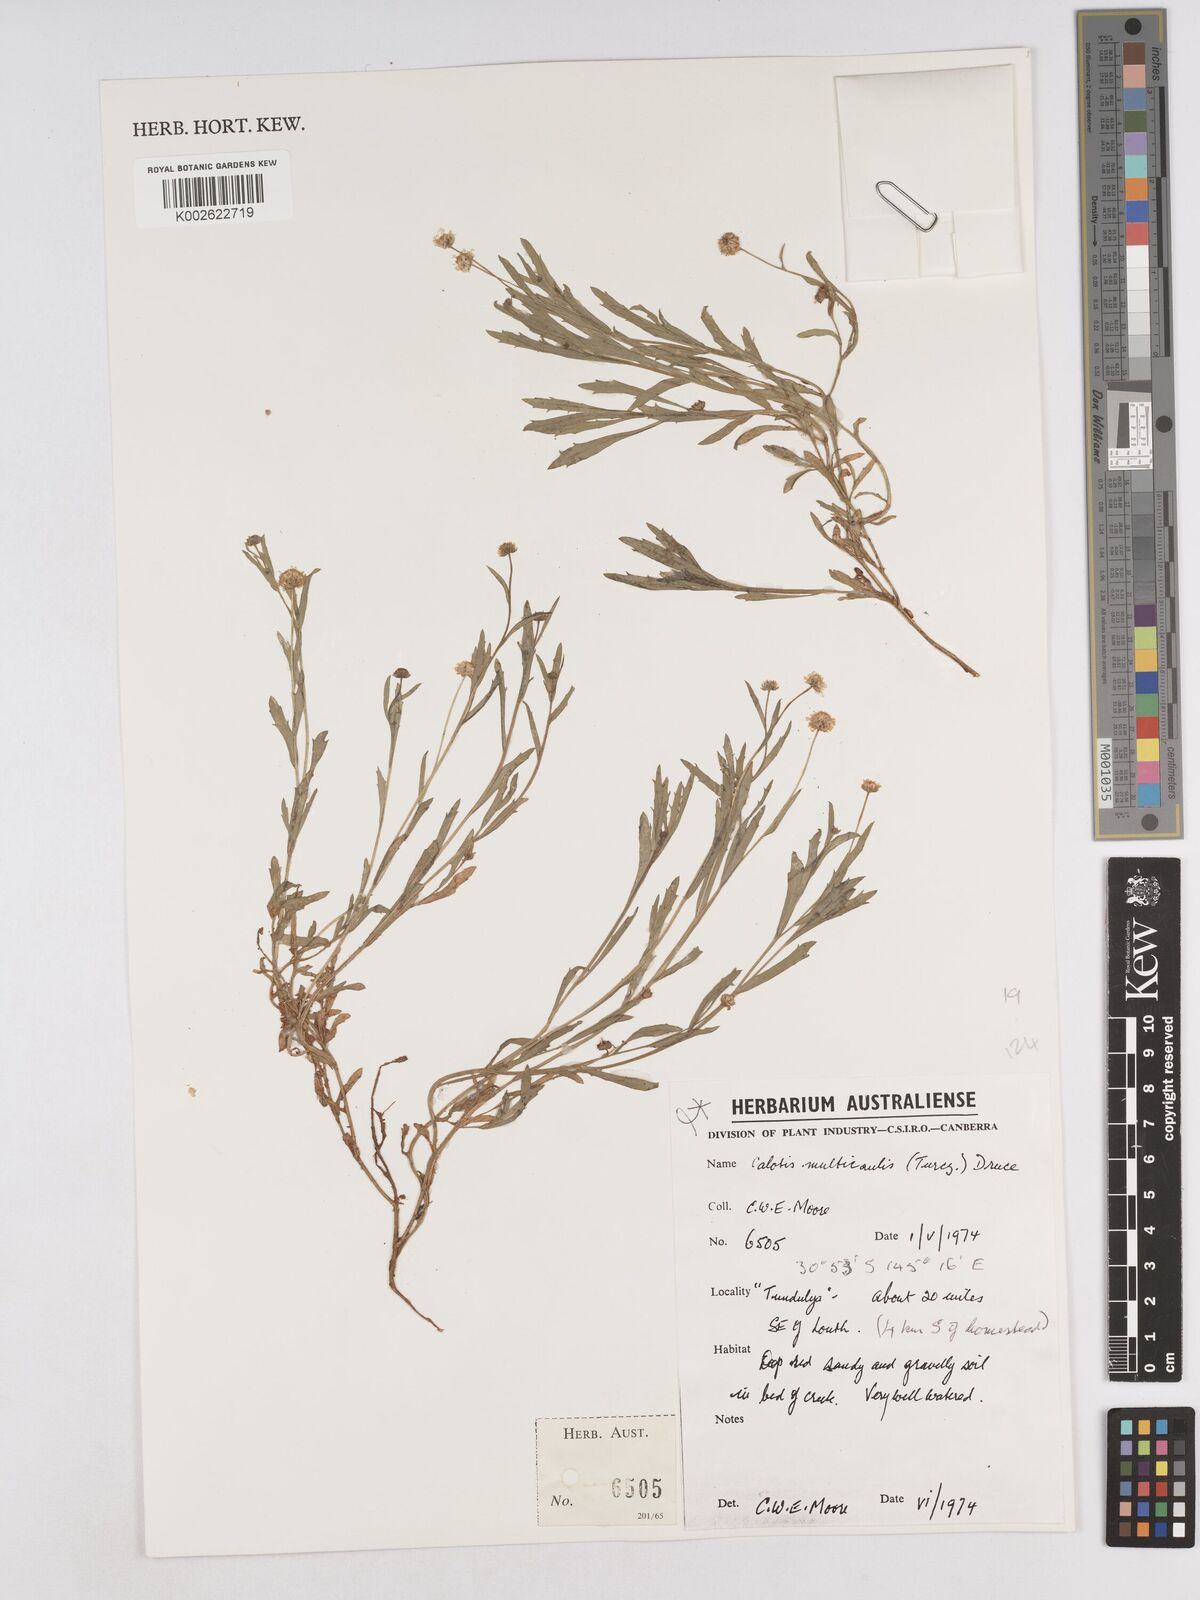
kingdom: Plantae
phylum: Tracheophyta
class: Magnoliopsida
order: Asterales
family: Asteraceae
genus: Calotis
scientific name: Calotis multicaulis
